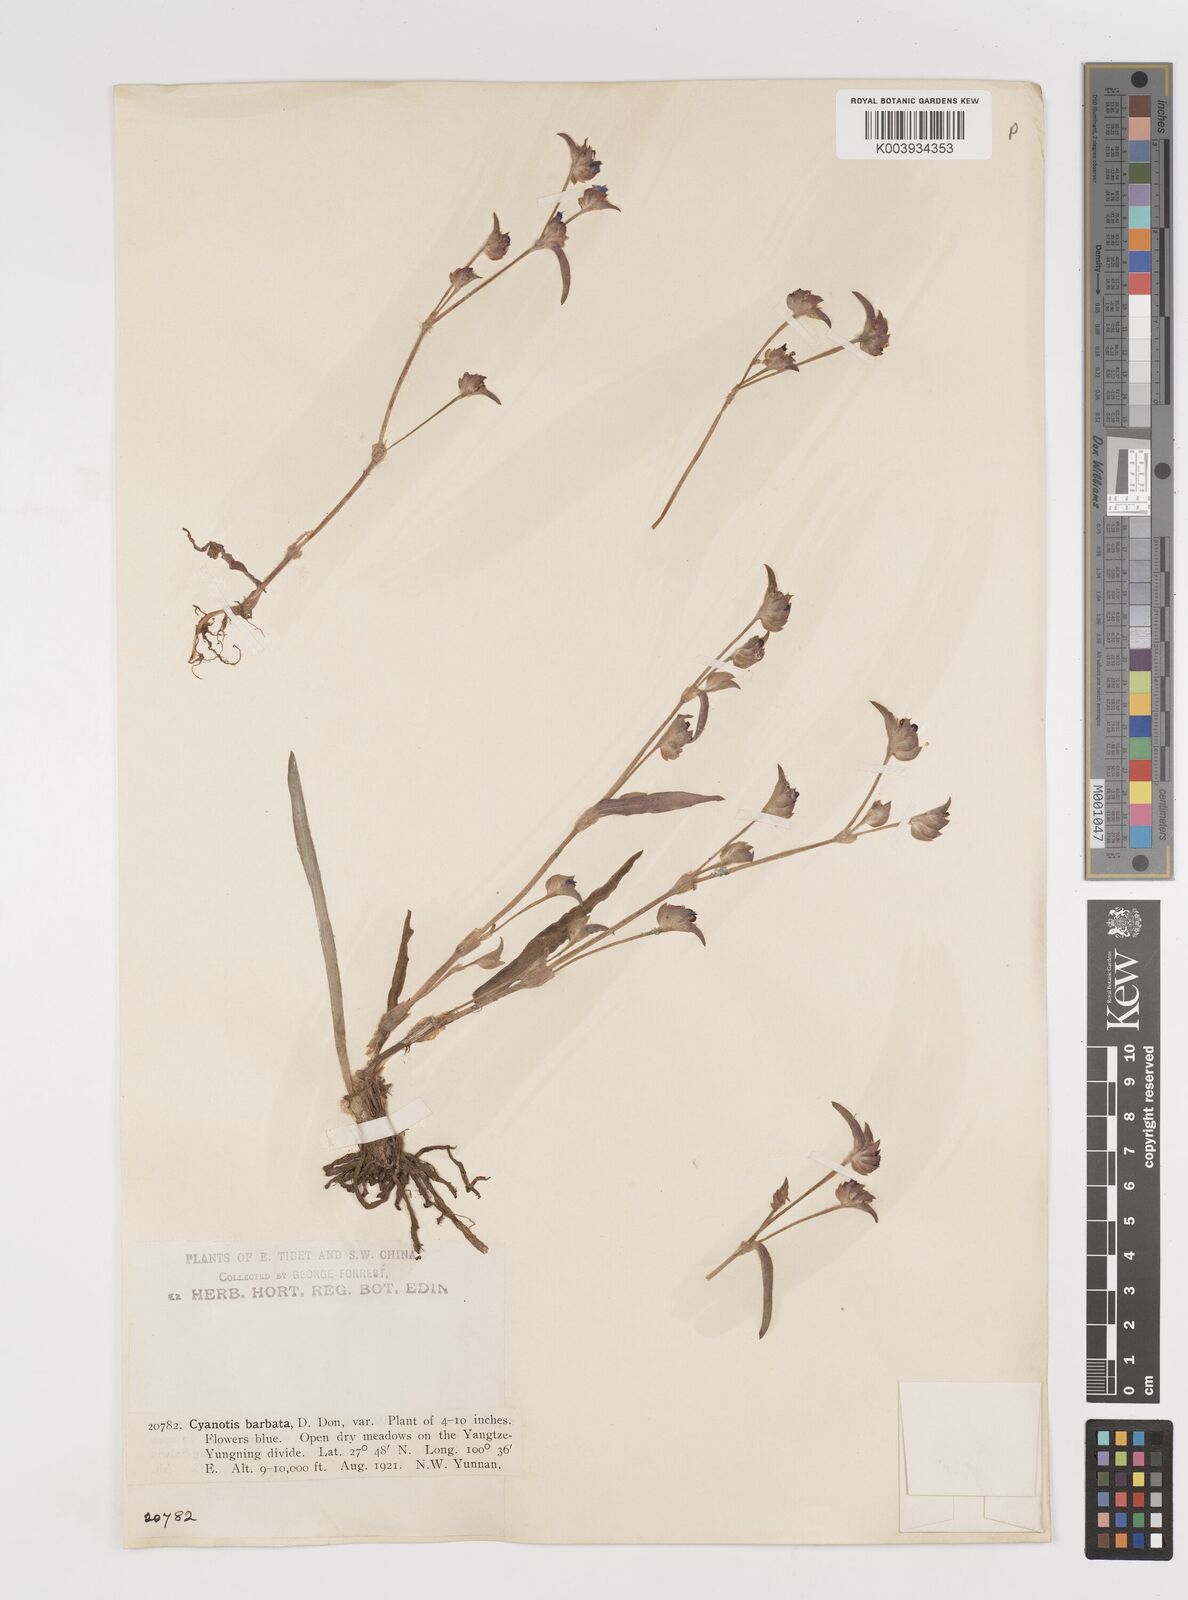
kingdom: Plantae
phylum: Tracheophyta
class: Liliopsida
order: Commelinales
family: Commelinaceae
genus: Cyanotis
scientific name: Cyanotis arachnoidea
